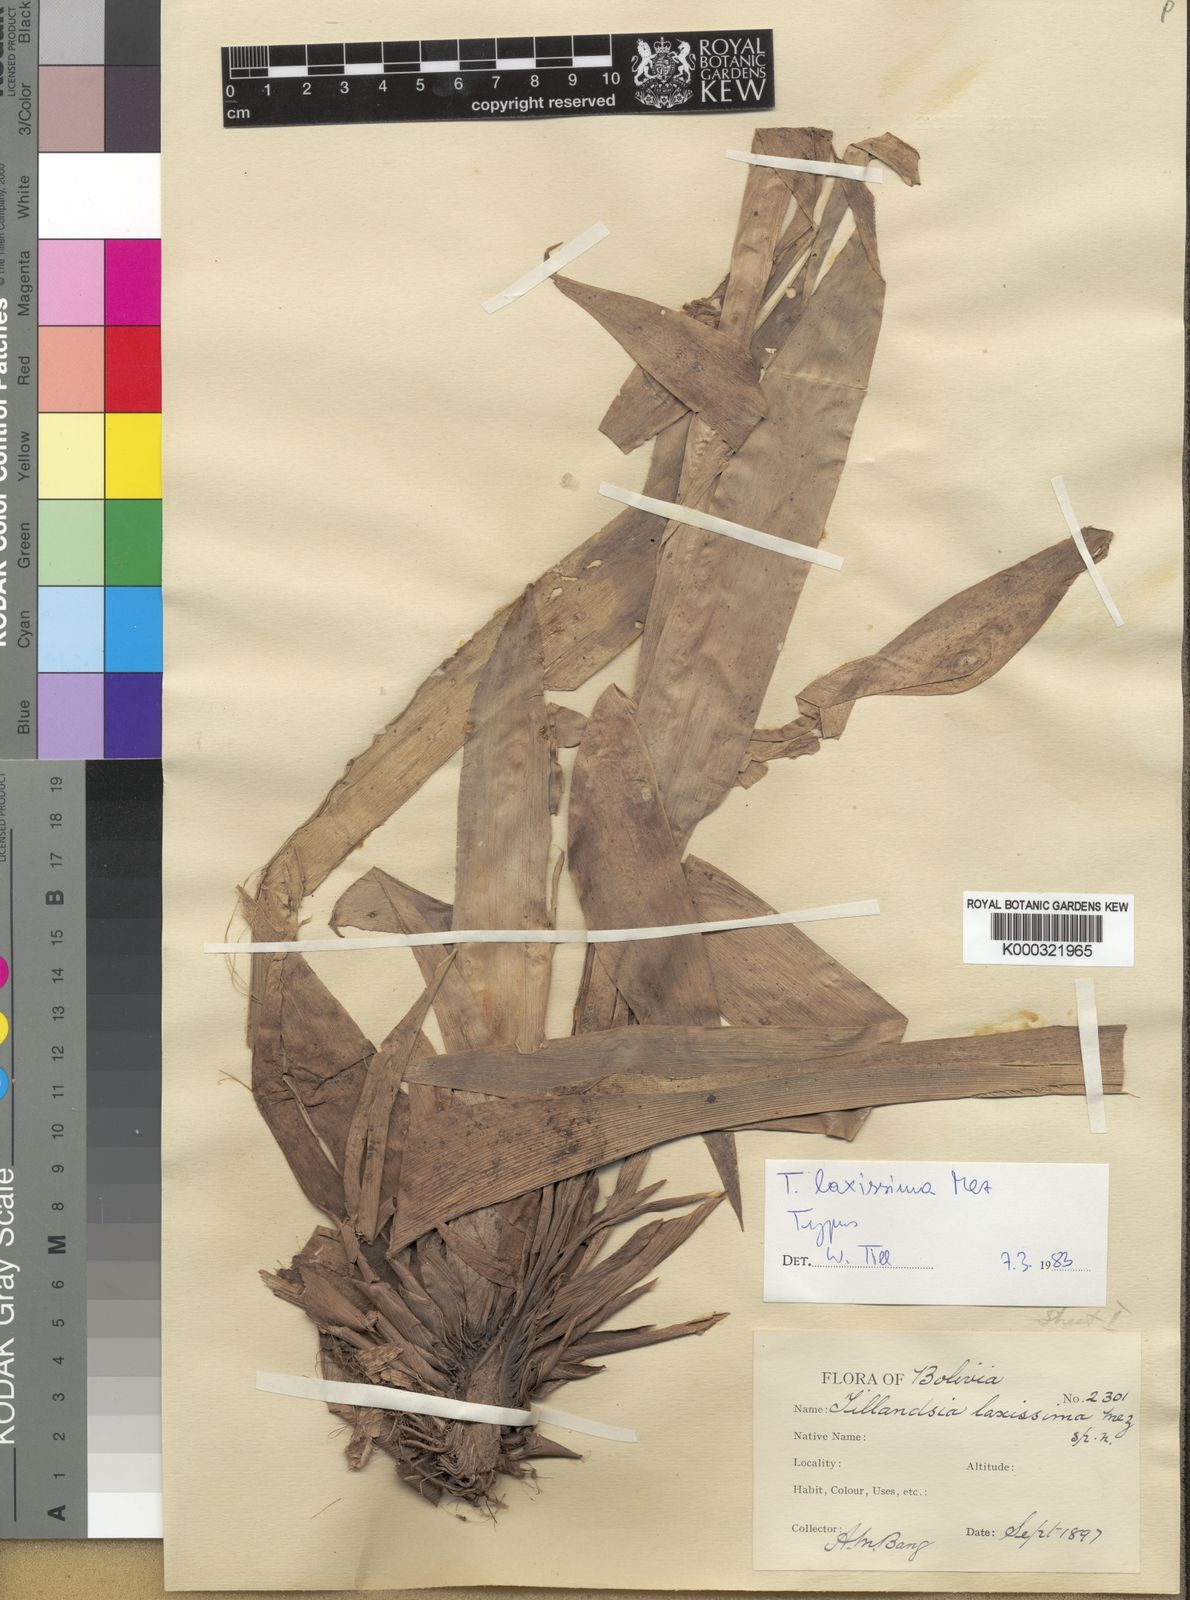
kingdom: Plantae
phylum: Tracheophyta
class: Liliopsida
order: Poales
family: Bromeliaceae
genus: Barfussia
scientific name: Barfussia laxissima
